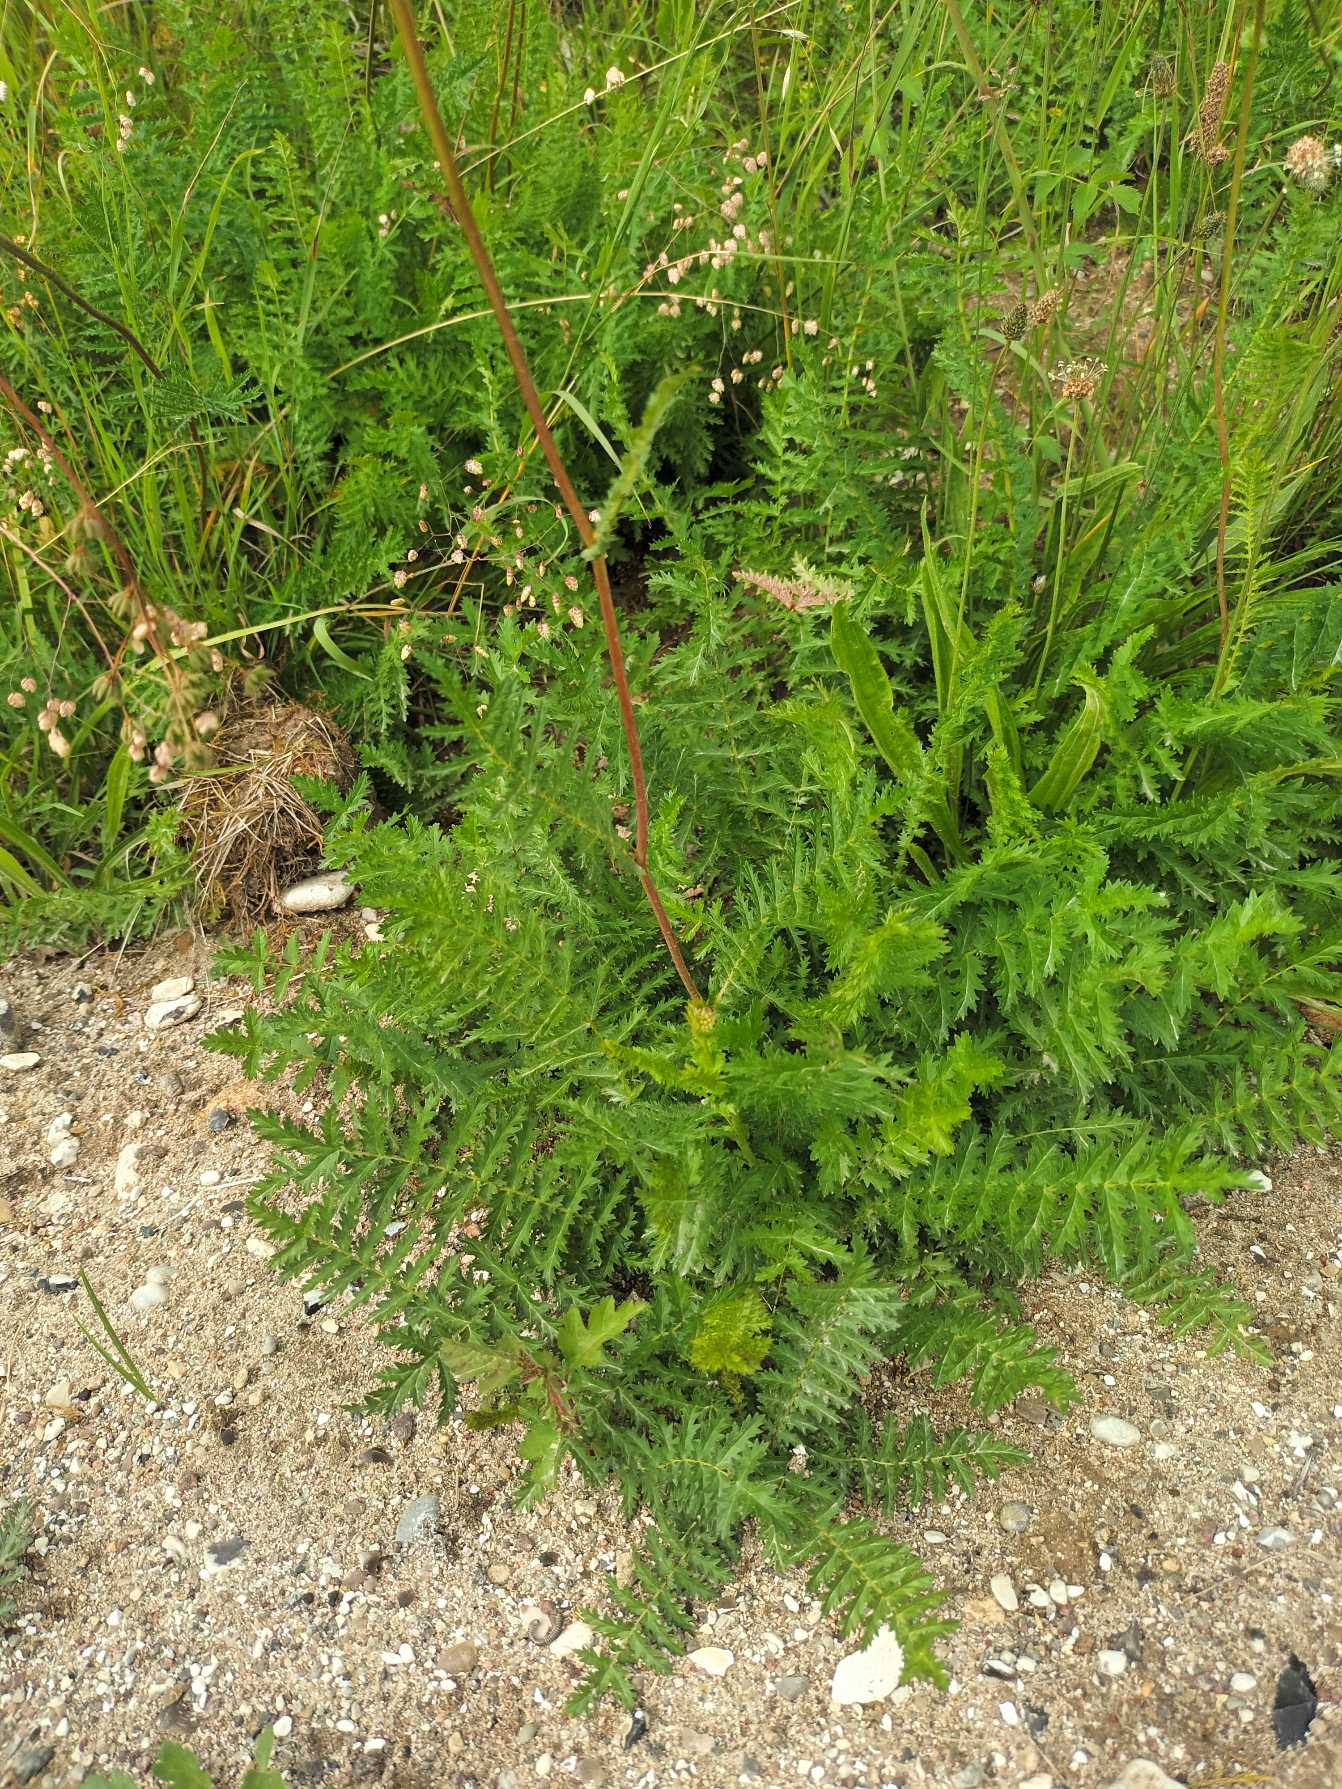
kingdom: Plantae
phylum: Tracheophyta
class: Magnoliopsida
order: Rosales
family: Rosaceae
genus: Filipendula
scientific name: Filipendula vulgaris
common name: Knoldet mjødurt
